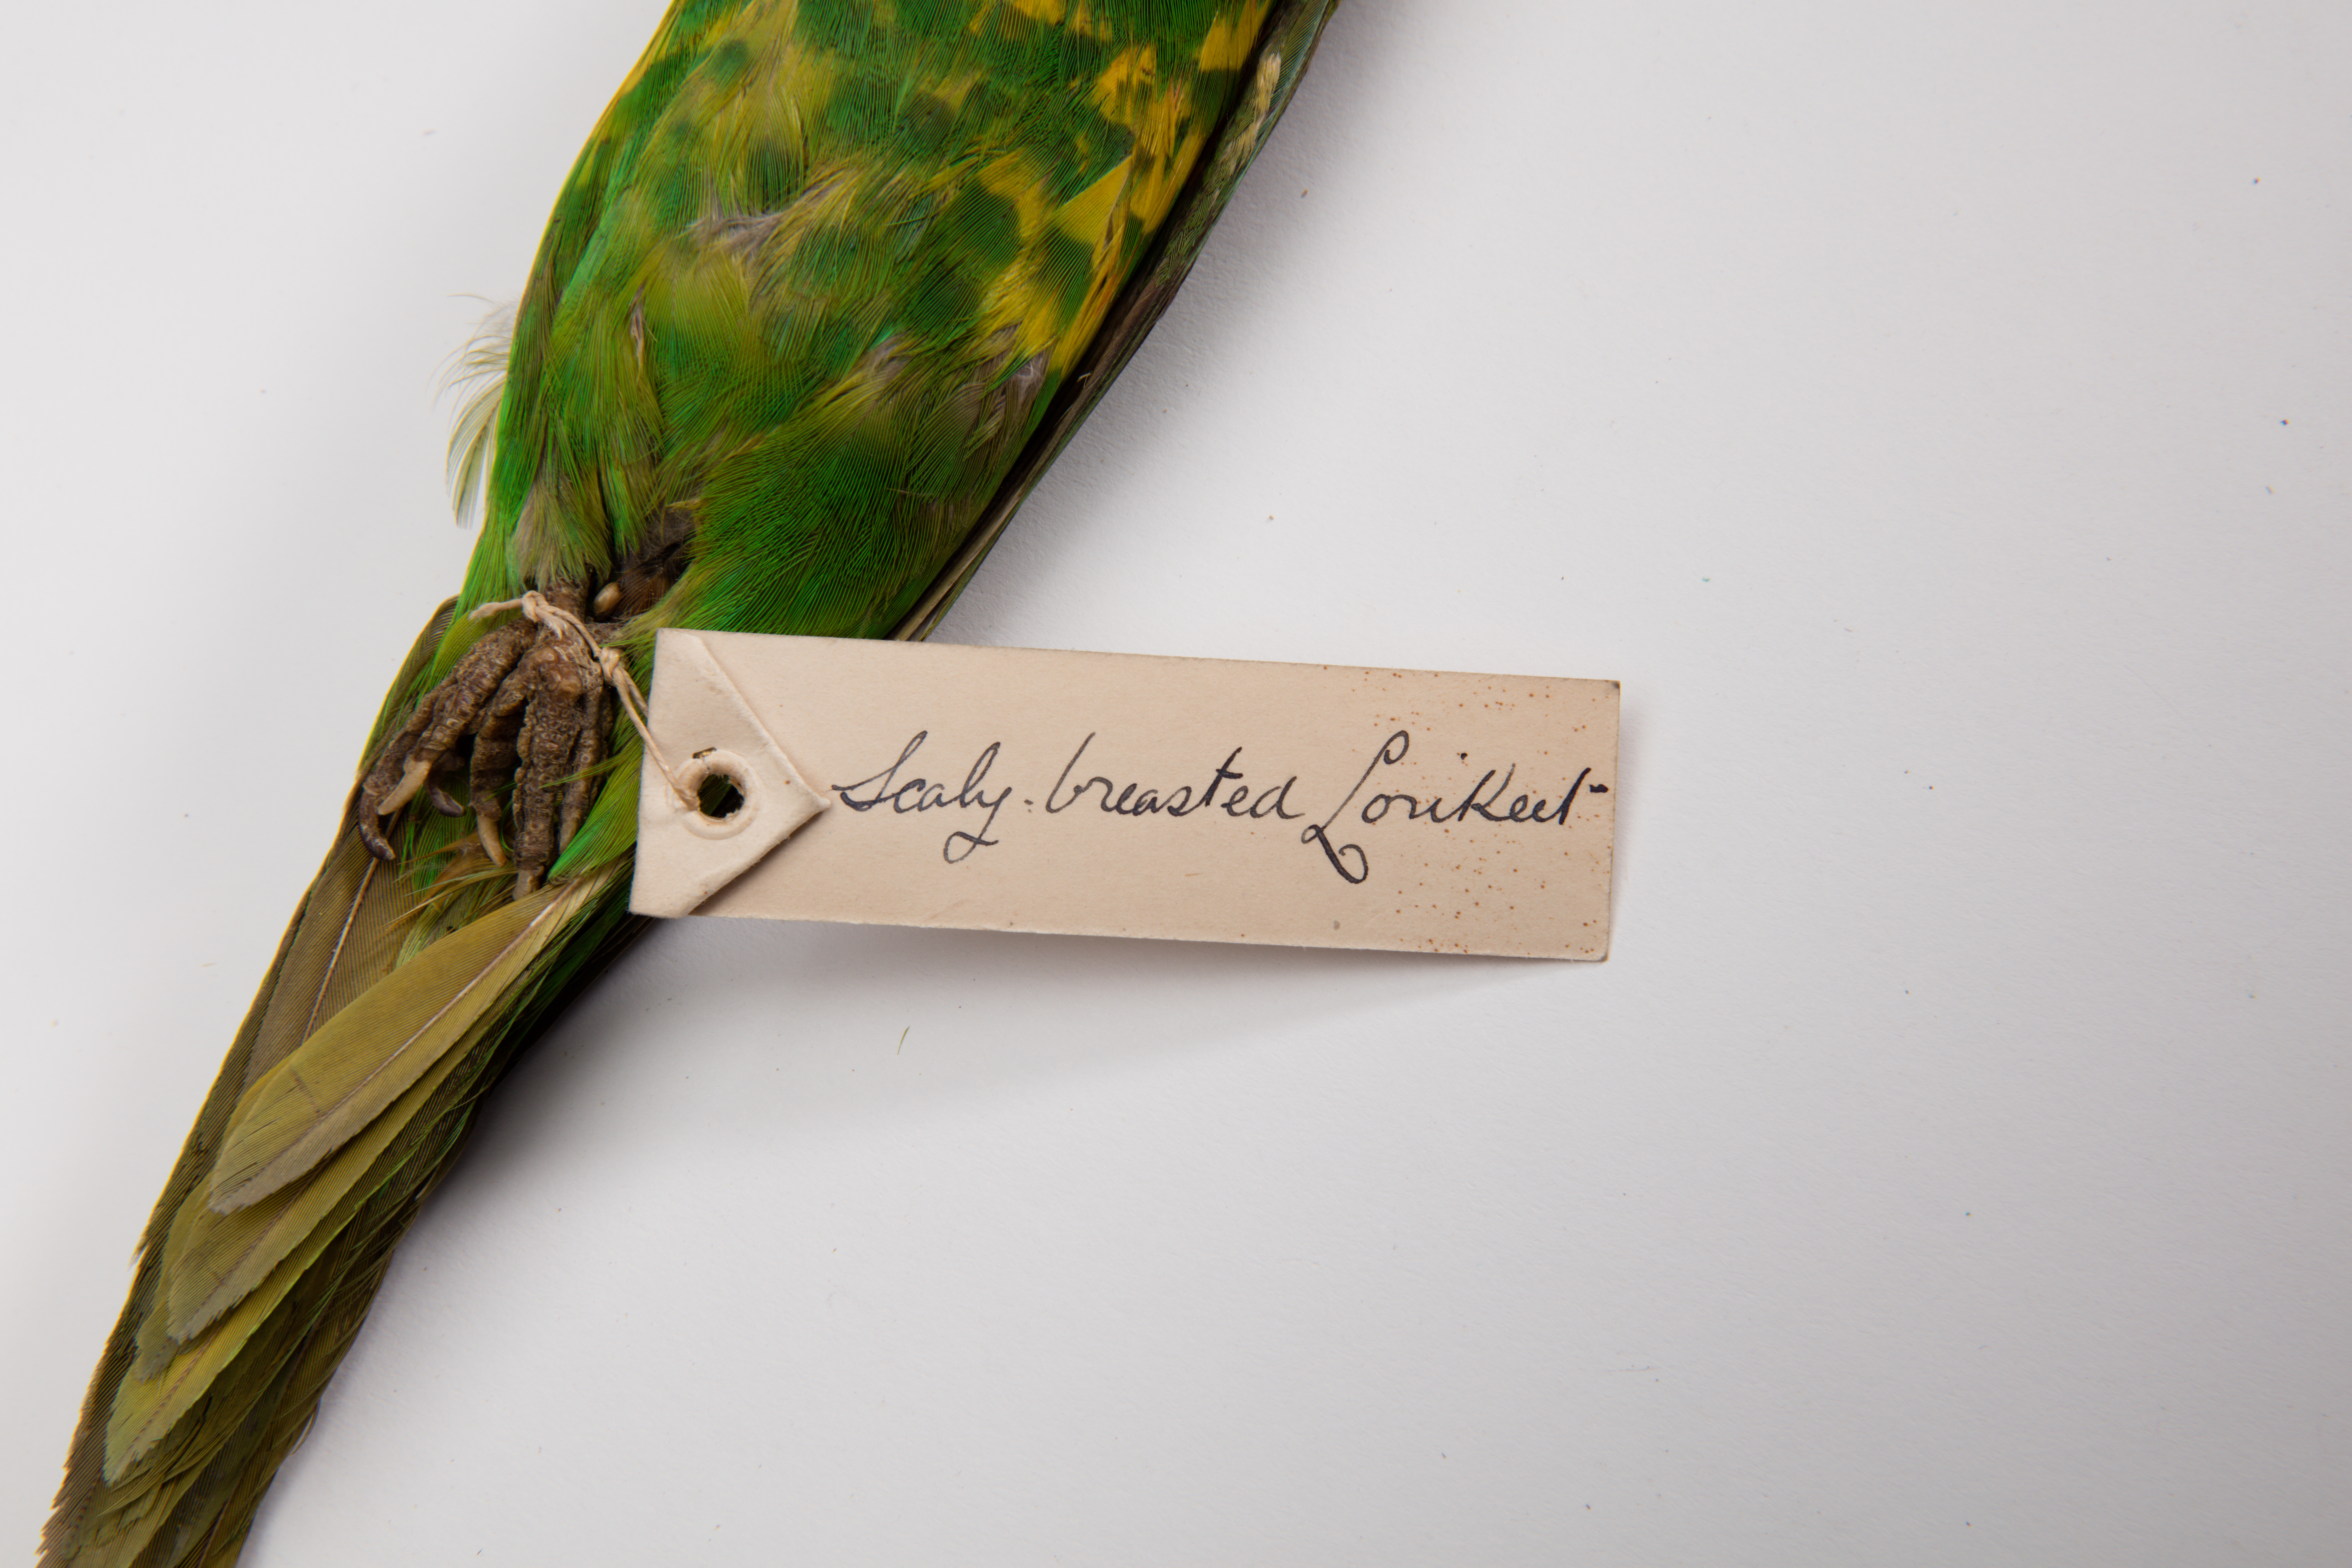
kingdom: Animalia
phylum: Chordata
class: Aves
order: Psittaciformes
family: Psittacidae
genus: Trichoglossus
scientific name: Trichoglossus chlorolepidotus
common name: Scaly-breasted lorikeet
